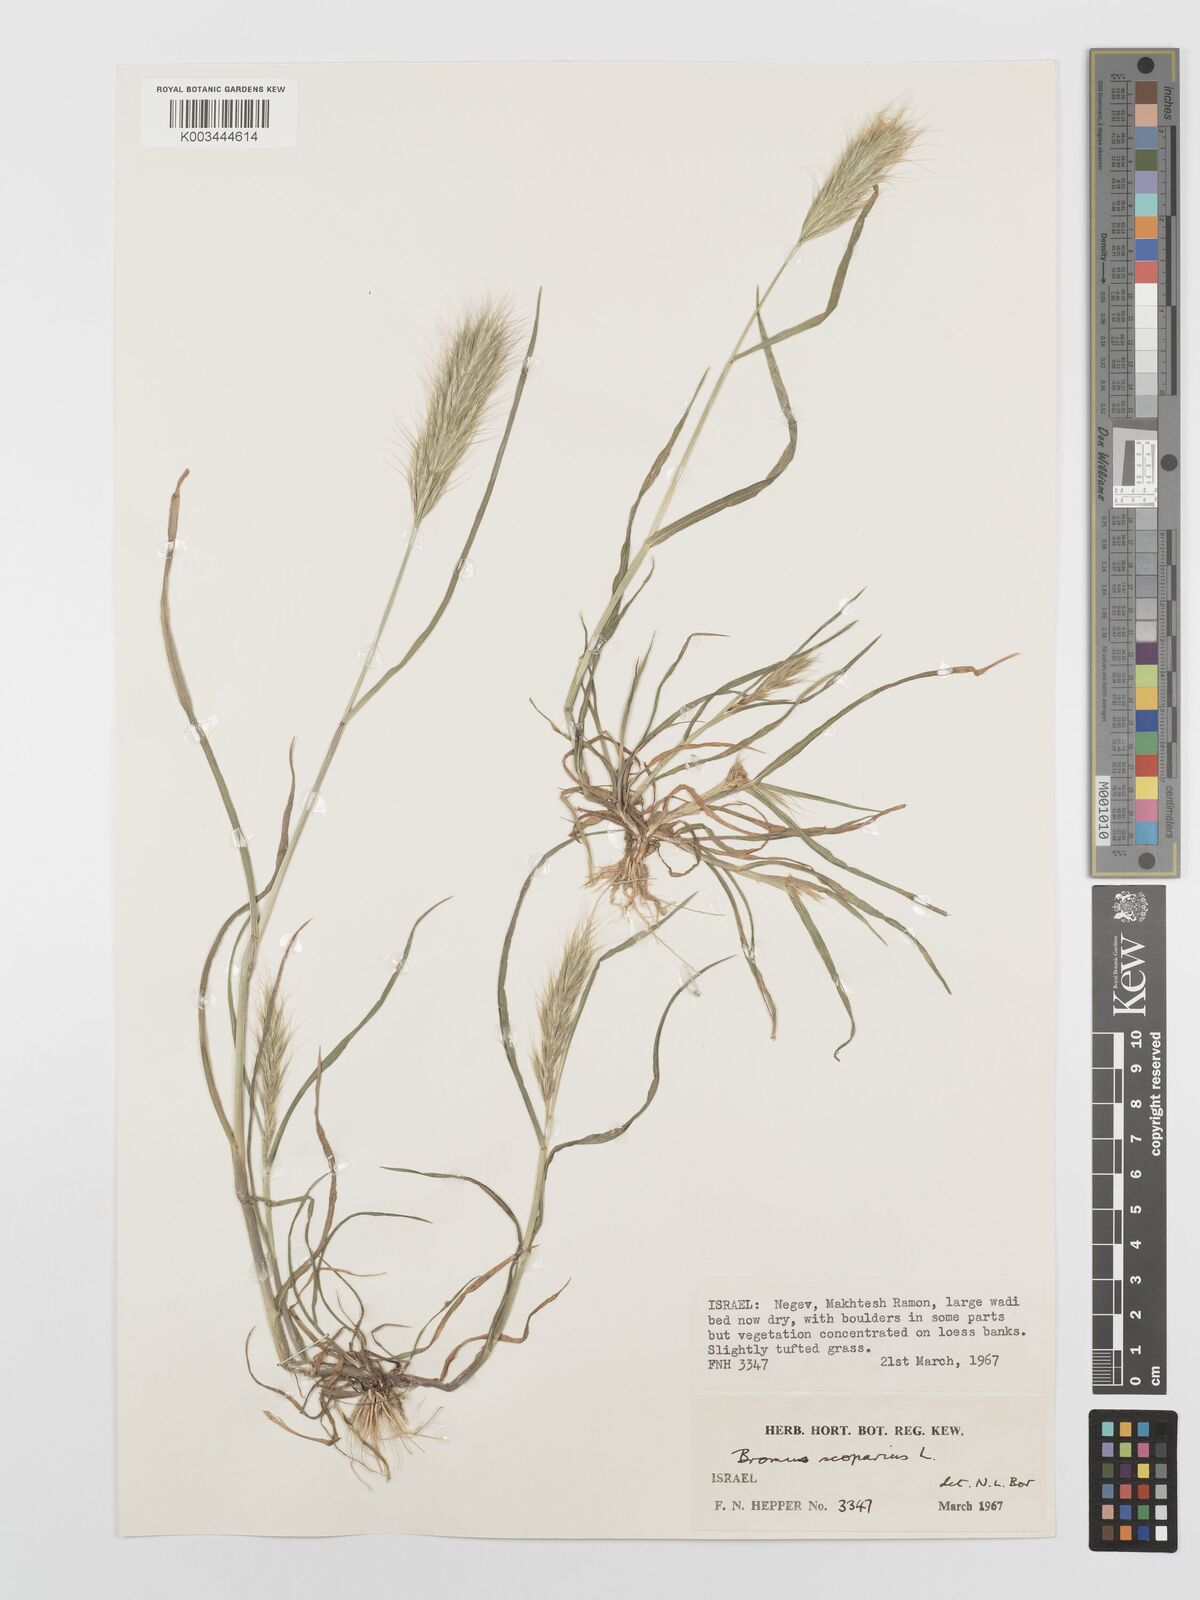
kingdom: Plantae
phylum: Tracheophyta
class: Liliopsida
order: Poales
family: Poaceae
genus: Bromus
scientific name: Bromus scoparius
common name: Broom brome
